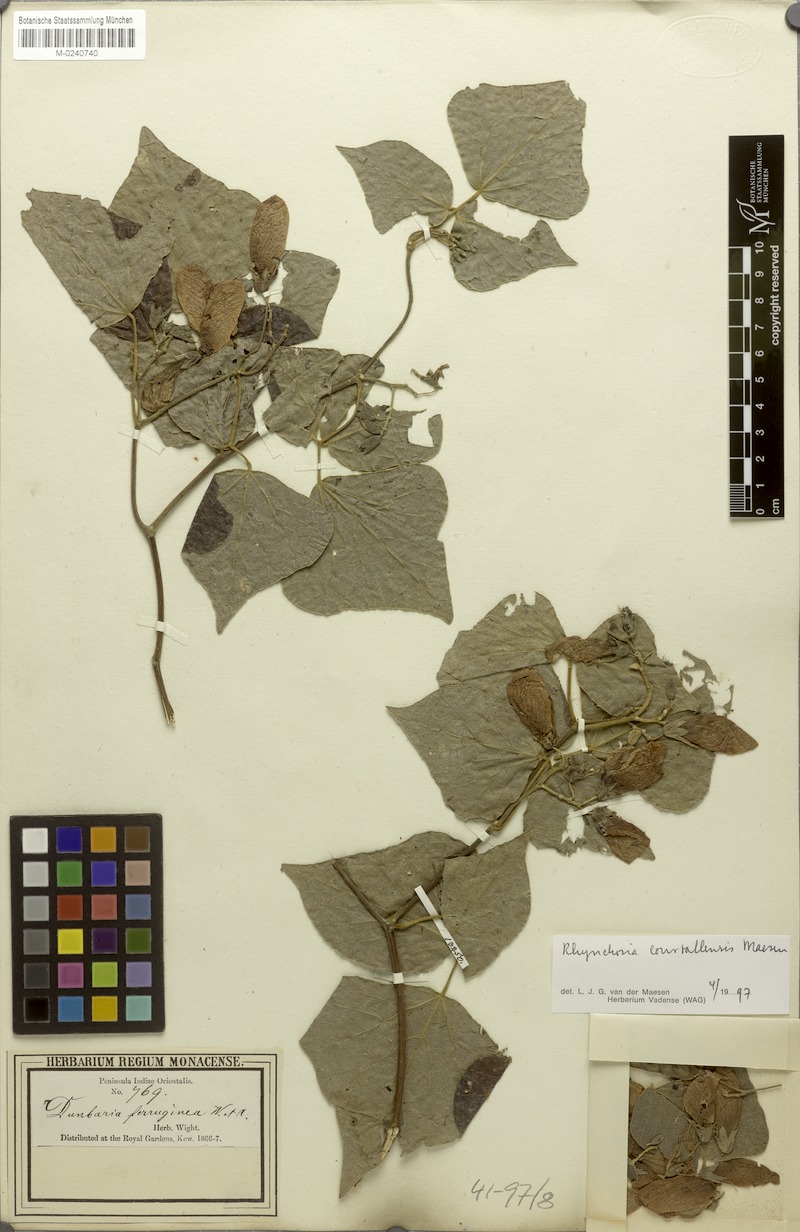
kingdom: Plantae
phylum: Tracheophyta
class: Magnoliopsida
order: Fabales
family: Fabaceae
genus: Rhynchosia
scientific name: Rhynchosia courtallensis
